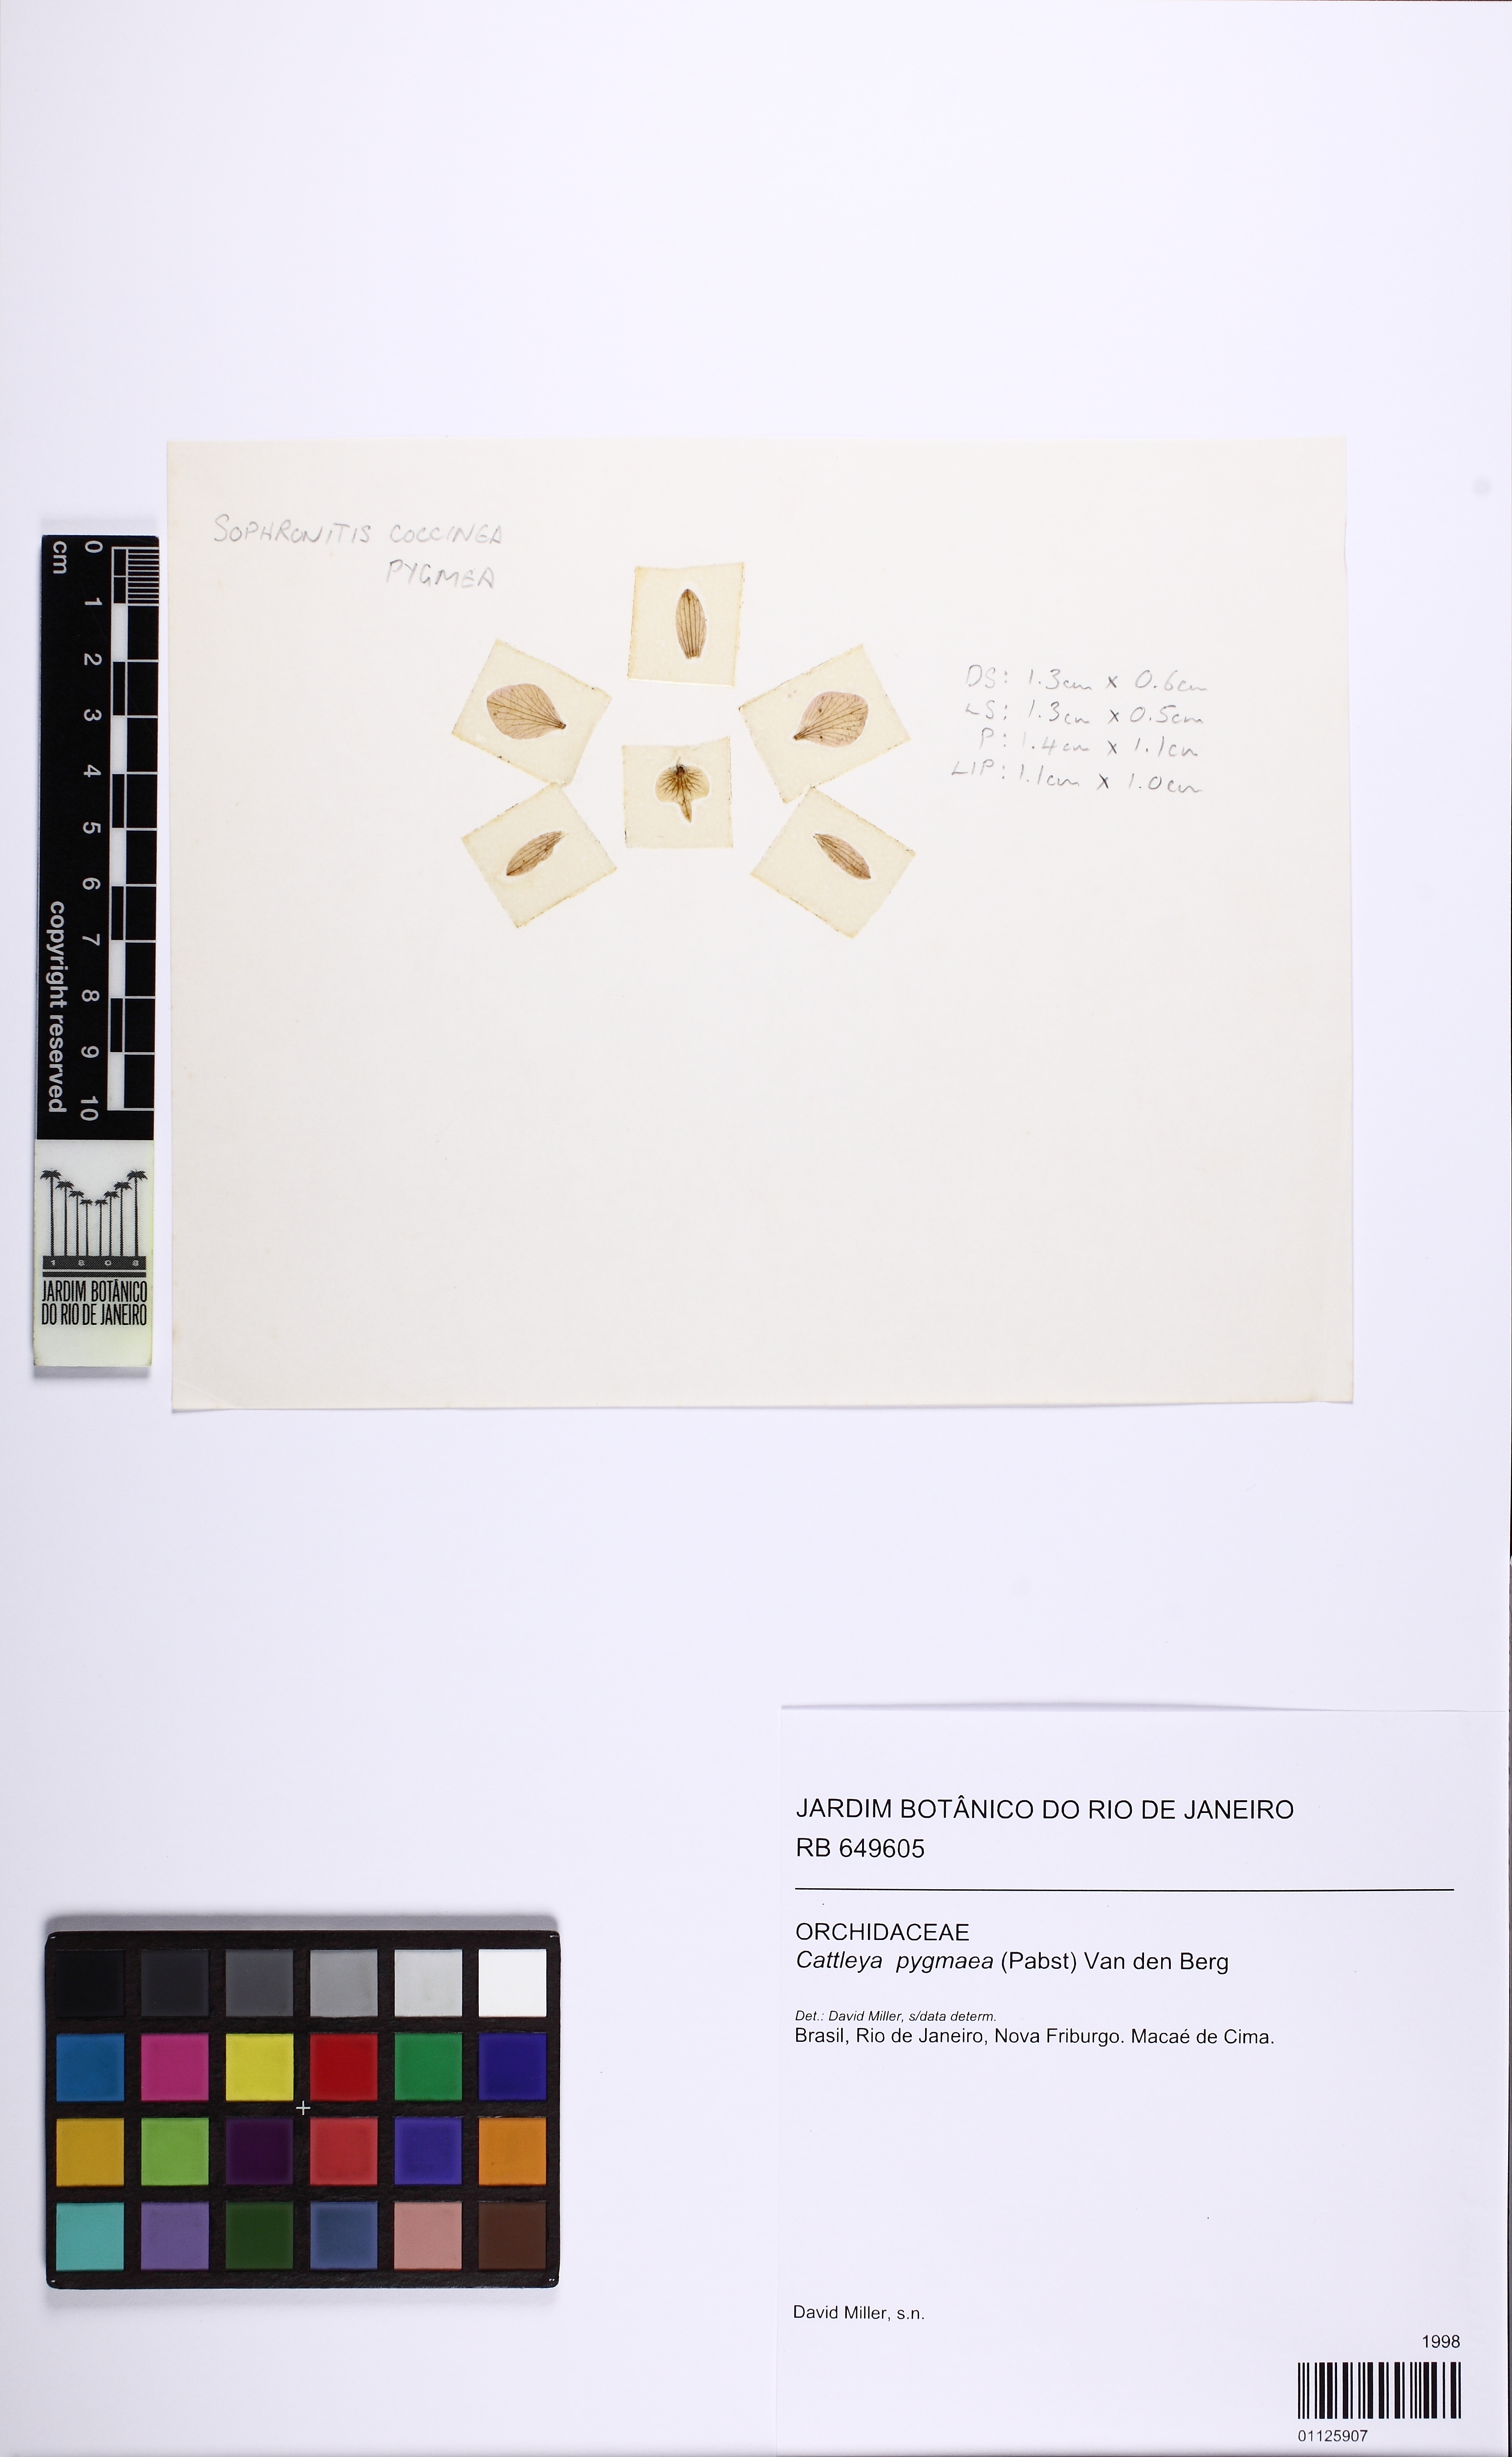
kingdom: Plantae
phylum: Tracheophyta
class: Liliopsida
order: Asparagales
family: Orchidaceae
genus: Cattleya
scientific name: Cattleya pygmaea
